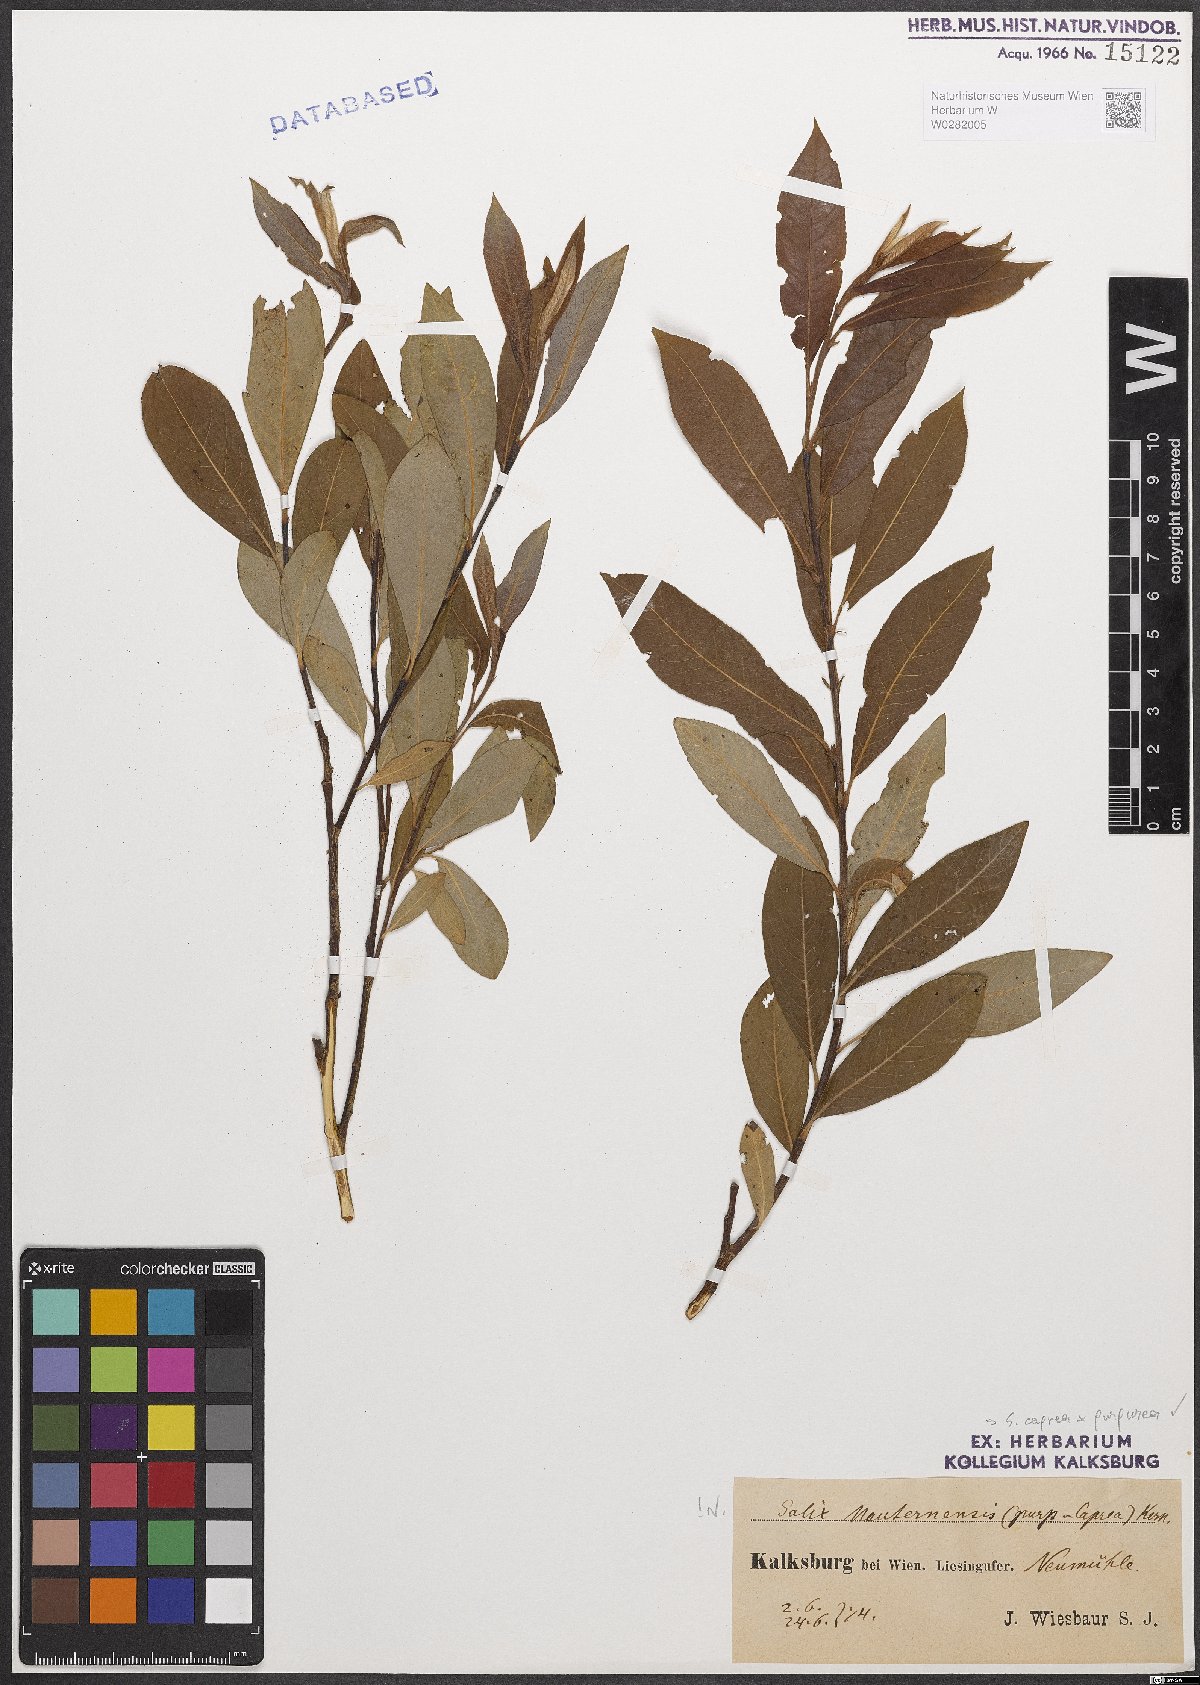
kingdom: Plantae
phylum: Tracheophyta
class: Magnoliopsida
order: Malpighiales
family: Salicaceae
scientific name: Salicaceae
